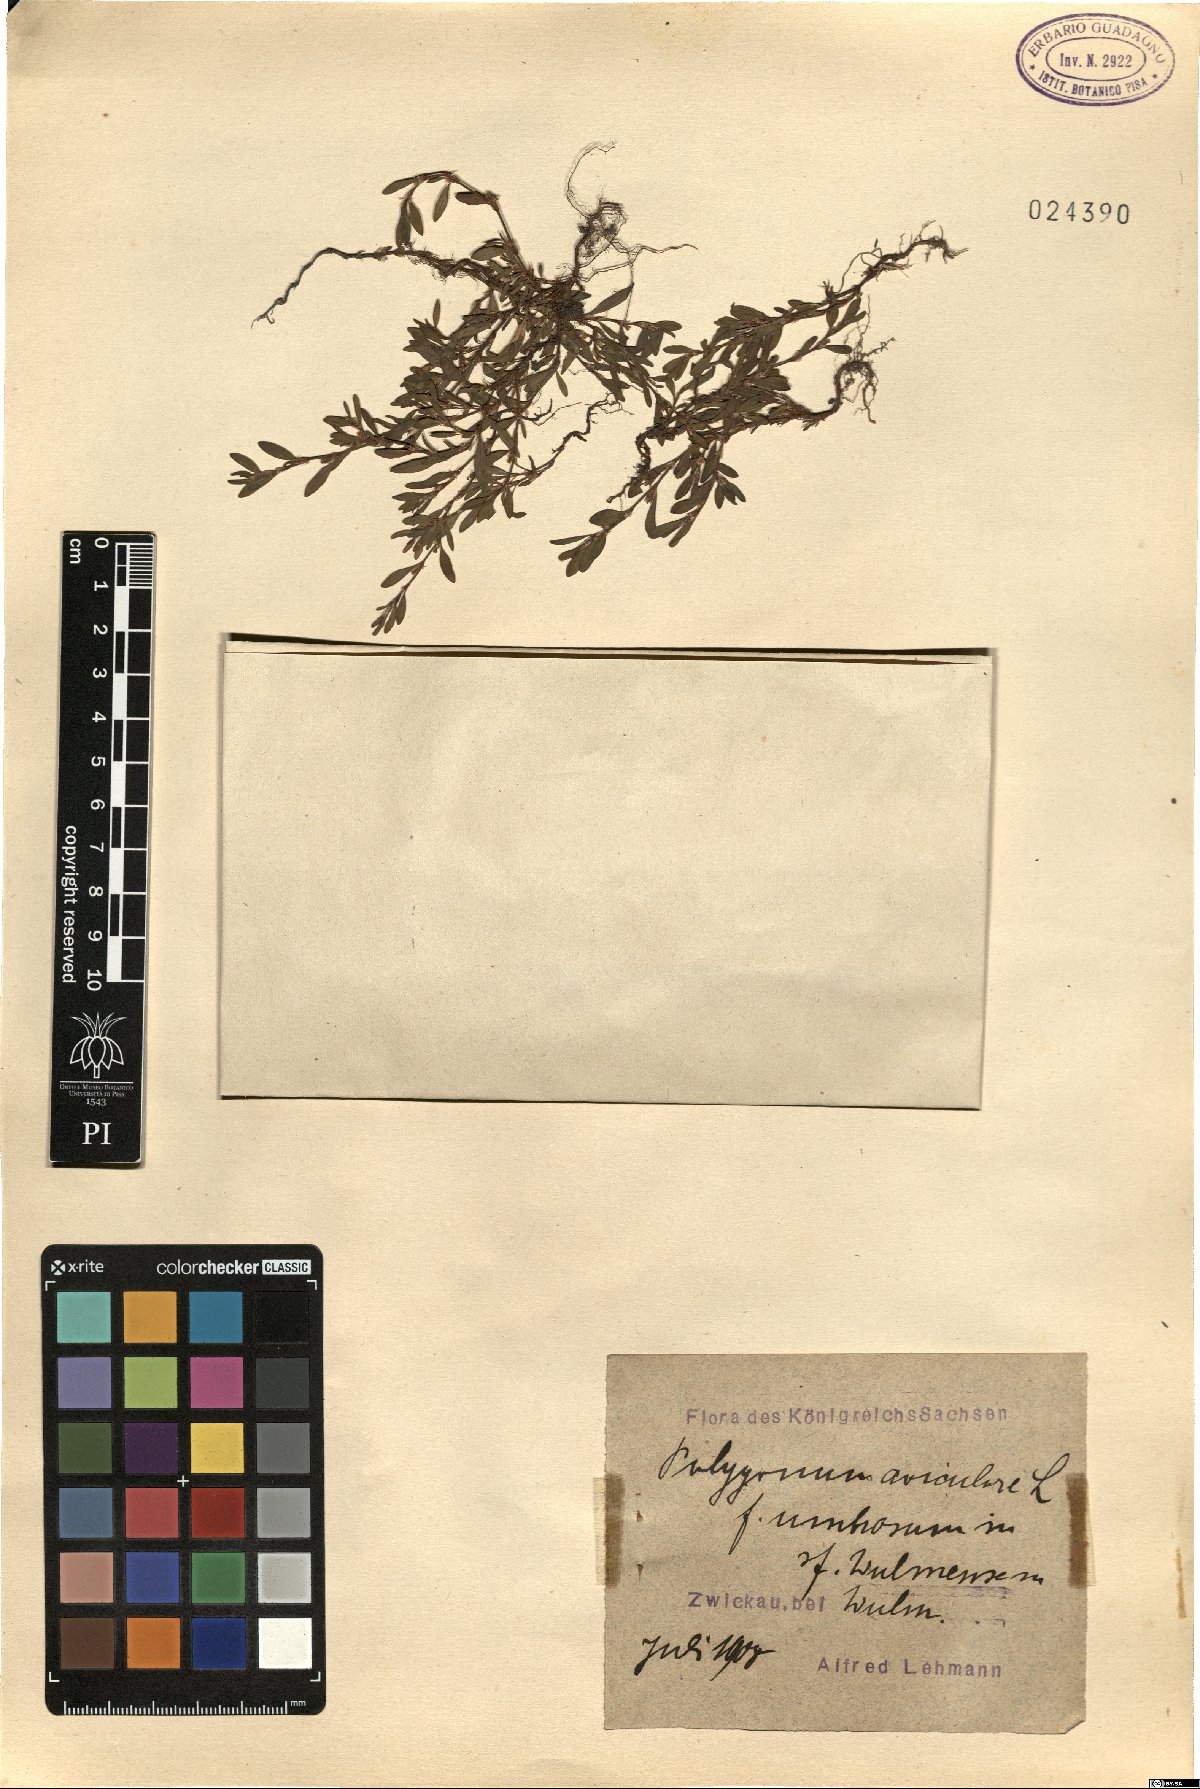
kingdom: Plantae
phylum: Tracheophyta
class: Magnoliopsida
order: Caryophyllales
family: Polygonaceae
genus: Polygonum
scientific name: Polygonum aviculare
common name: Prostrate knotweed
